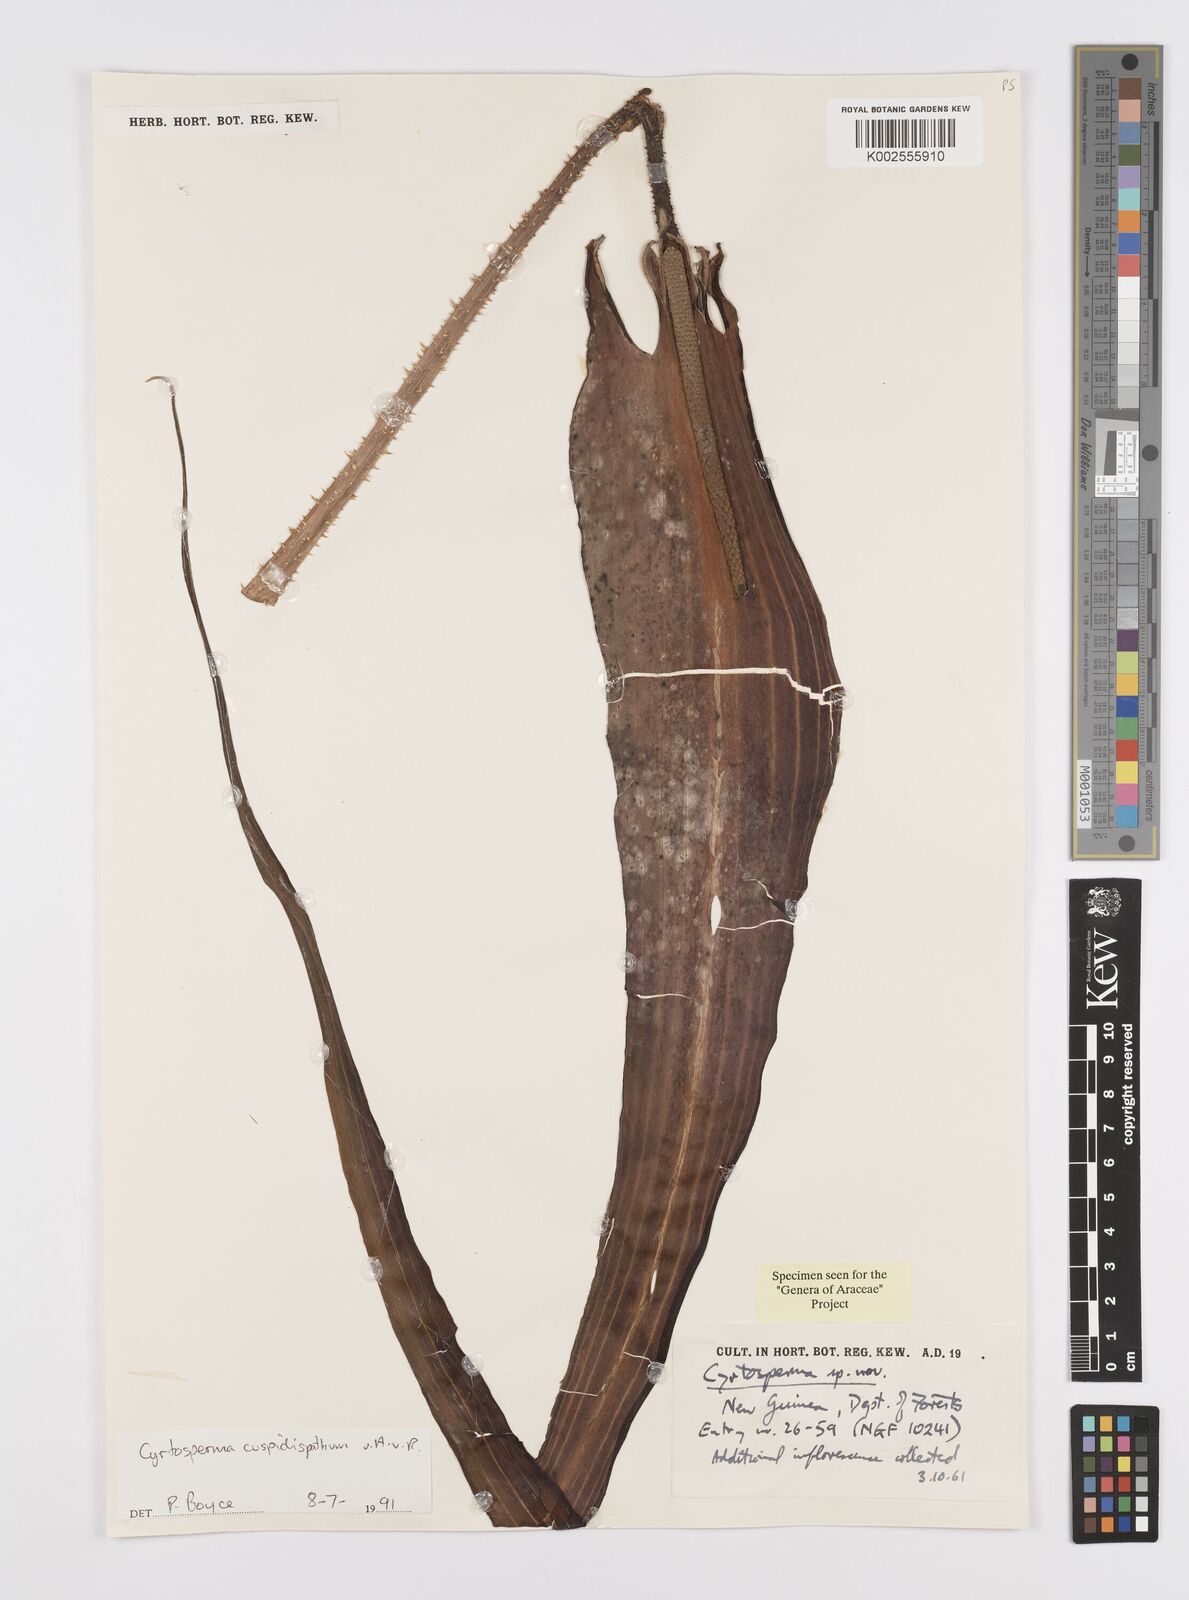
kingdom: Plantae
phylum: Tracheophyta
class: Liliopsida
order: Alismatales
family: Araceae
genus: Cyrtosperma
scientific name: Cyrtosperma cuspidispathum
